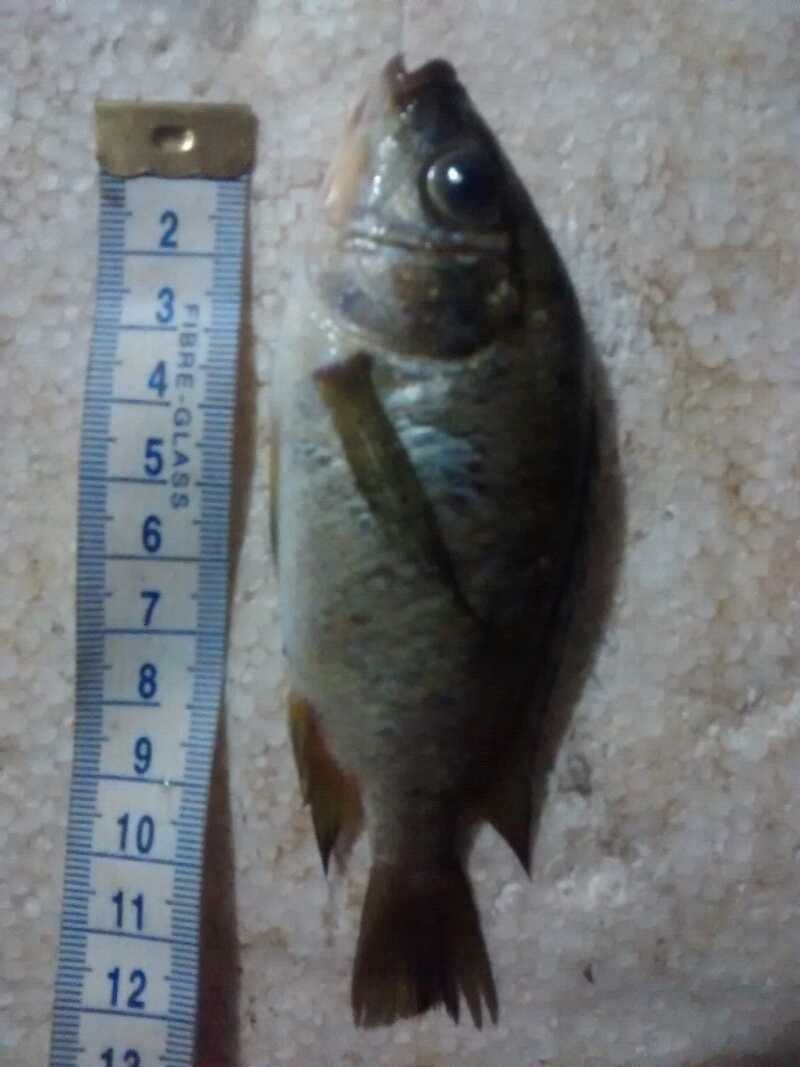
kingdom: Animalia
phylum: Chordata
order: Perciformes
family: Cichlidae
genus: Oreochromis
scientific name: Oreochromis karongae
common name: Tilapia
